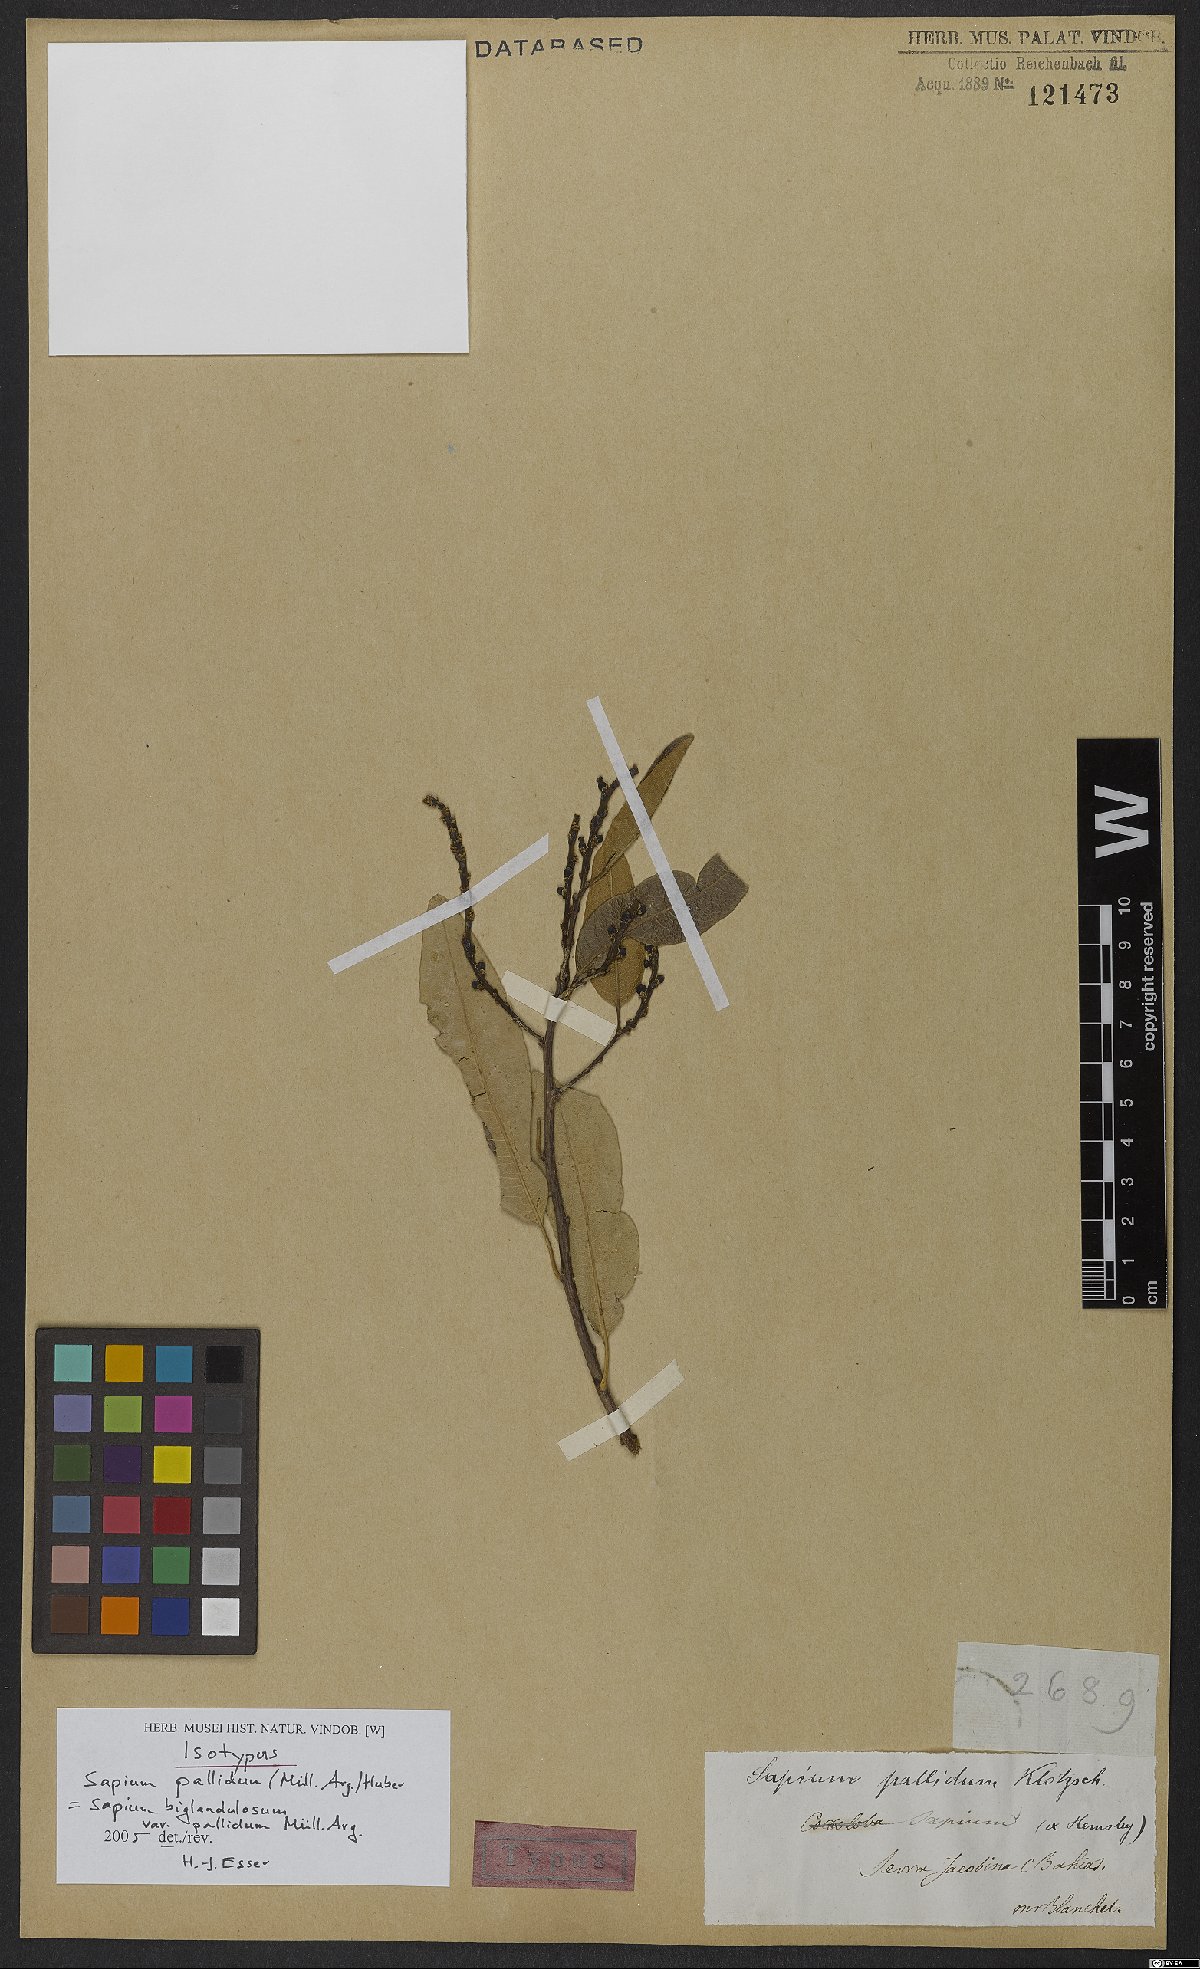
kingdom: Plantae
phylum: Tracheophyta
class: Magnoliopsida
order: Malpighiales
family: Euphorbiaceae
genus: Sapium
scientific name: Sapium pallidum
